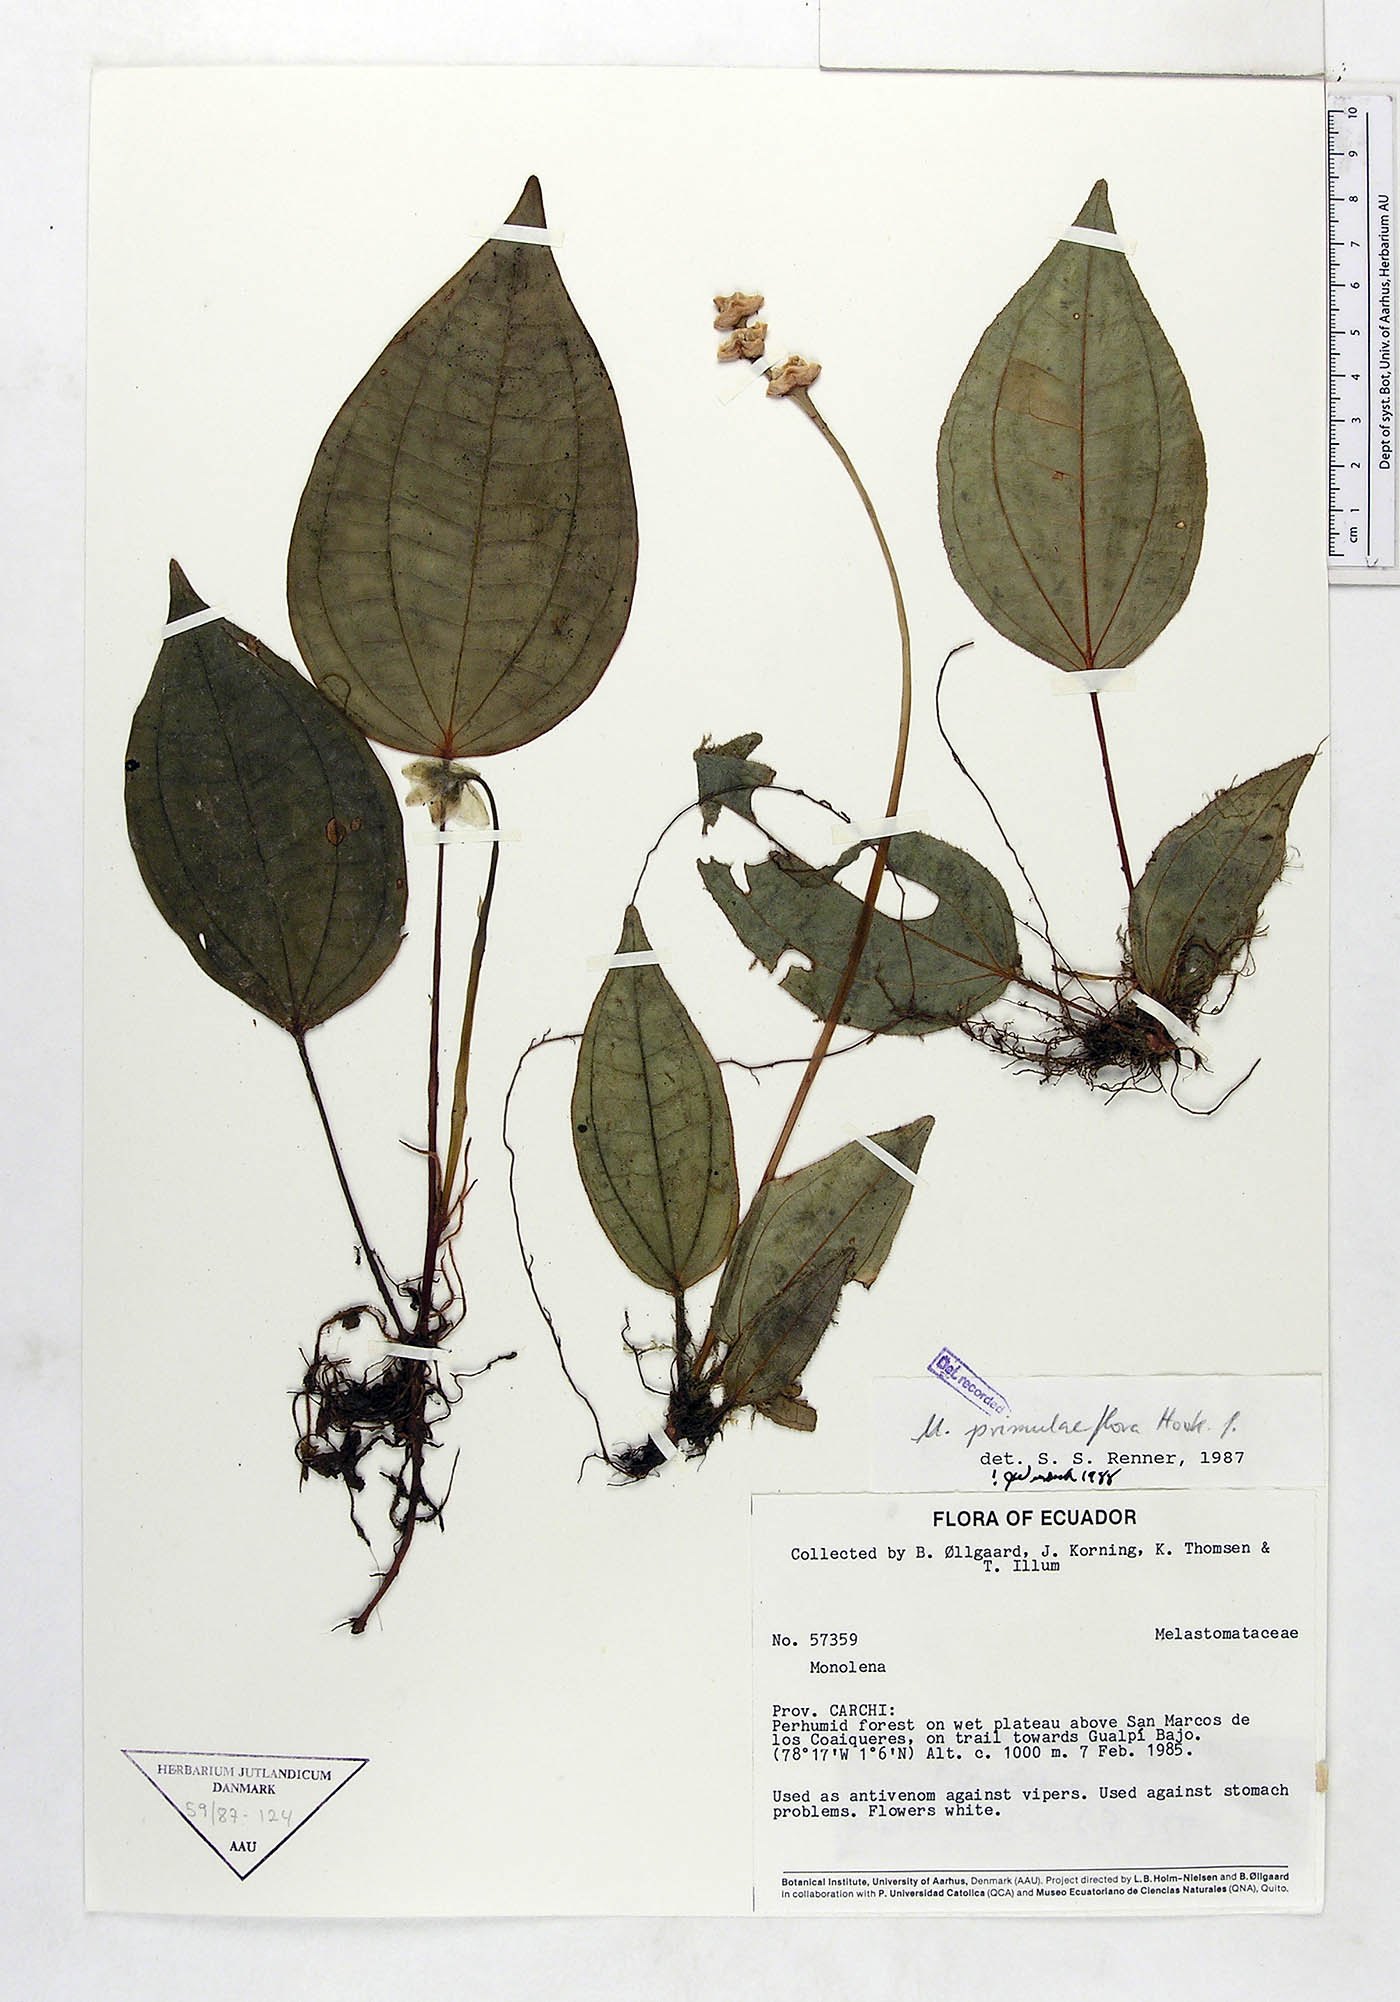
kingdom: Plantae
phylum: Tracheophyta
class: Magnoliopsida
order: Myrtales
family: Melastomataceae
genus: Monolena
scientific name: Monolena primuliflora
